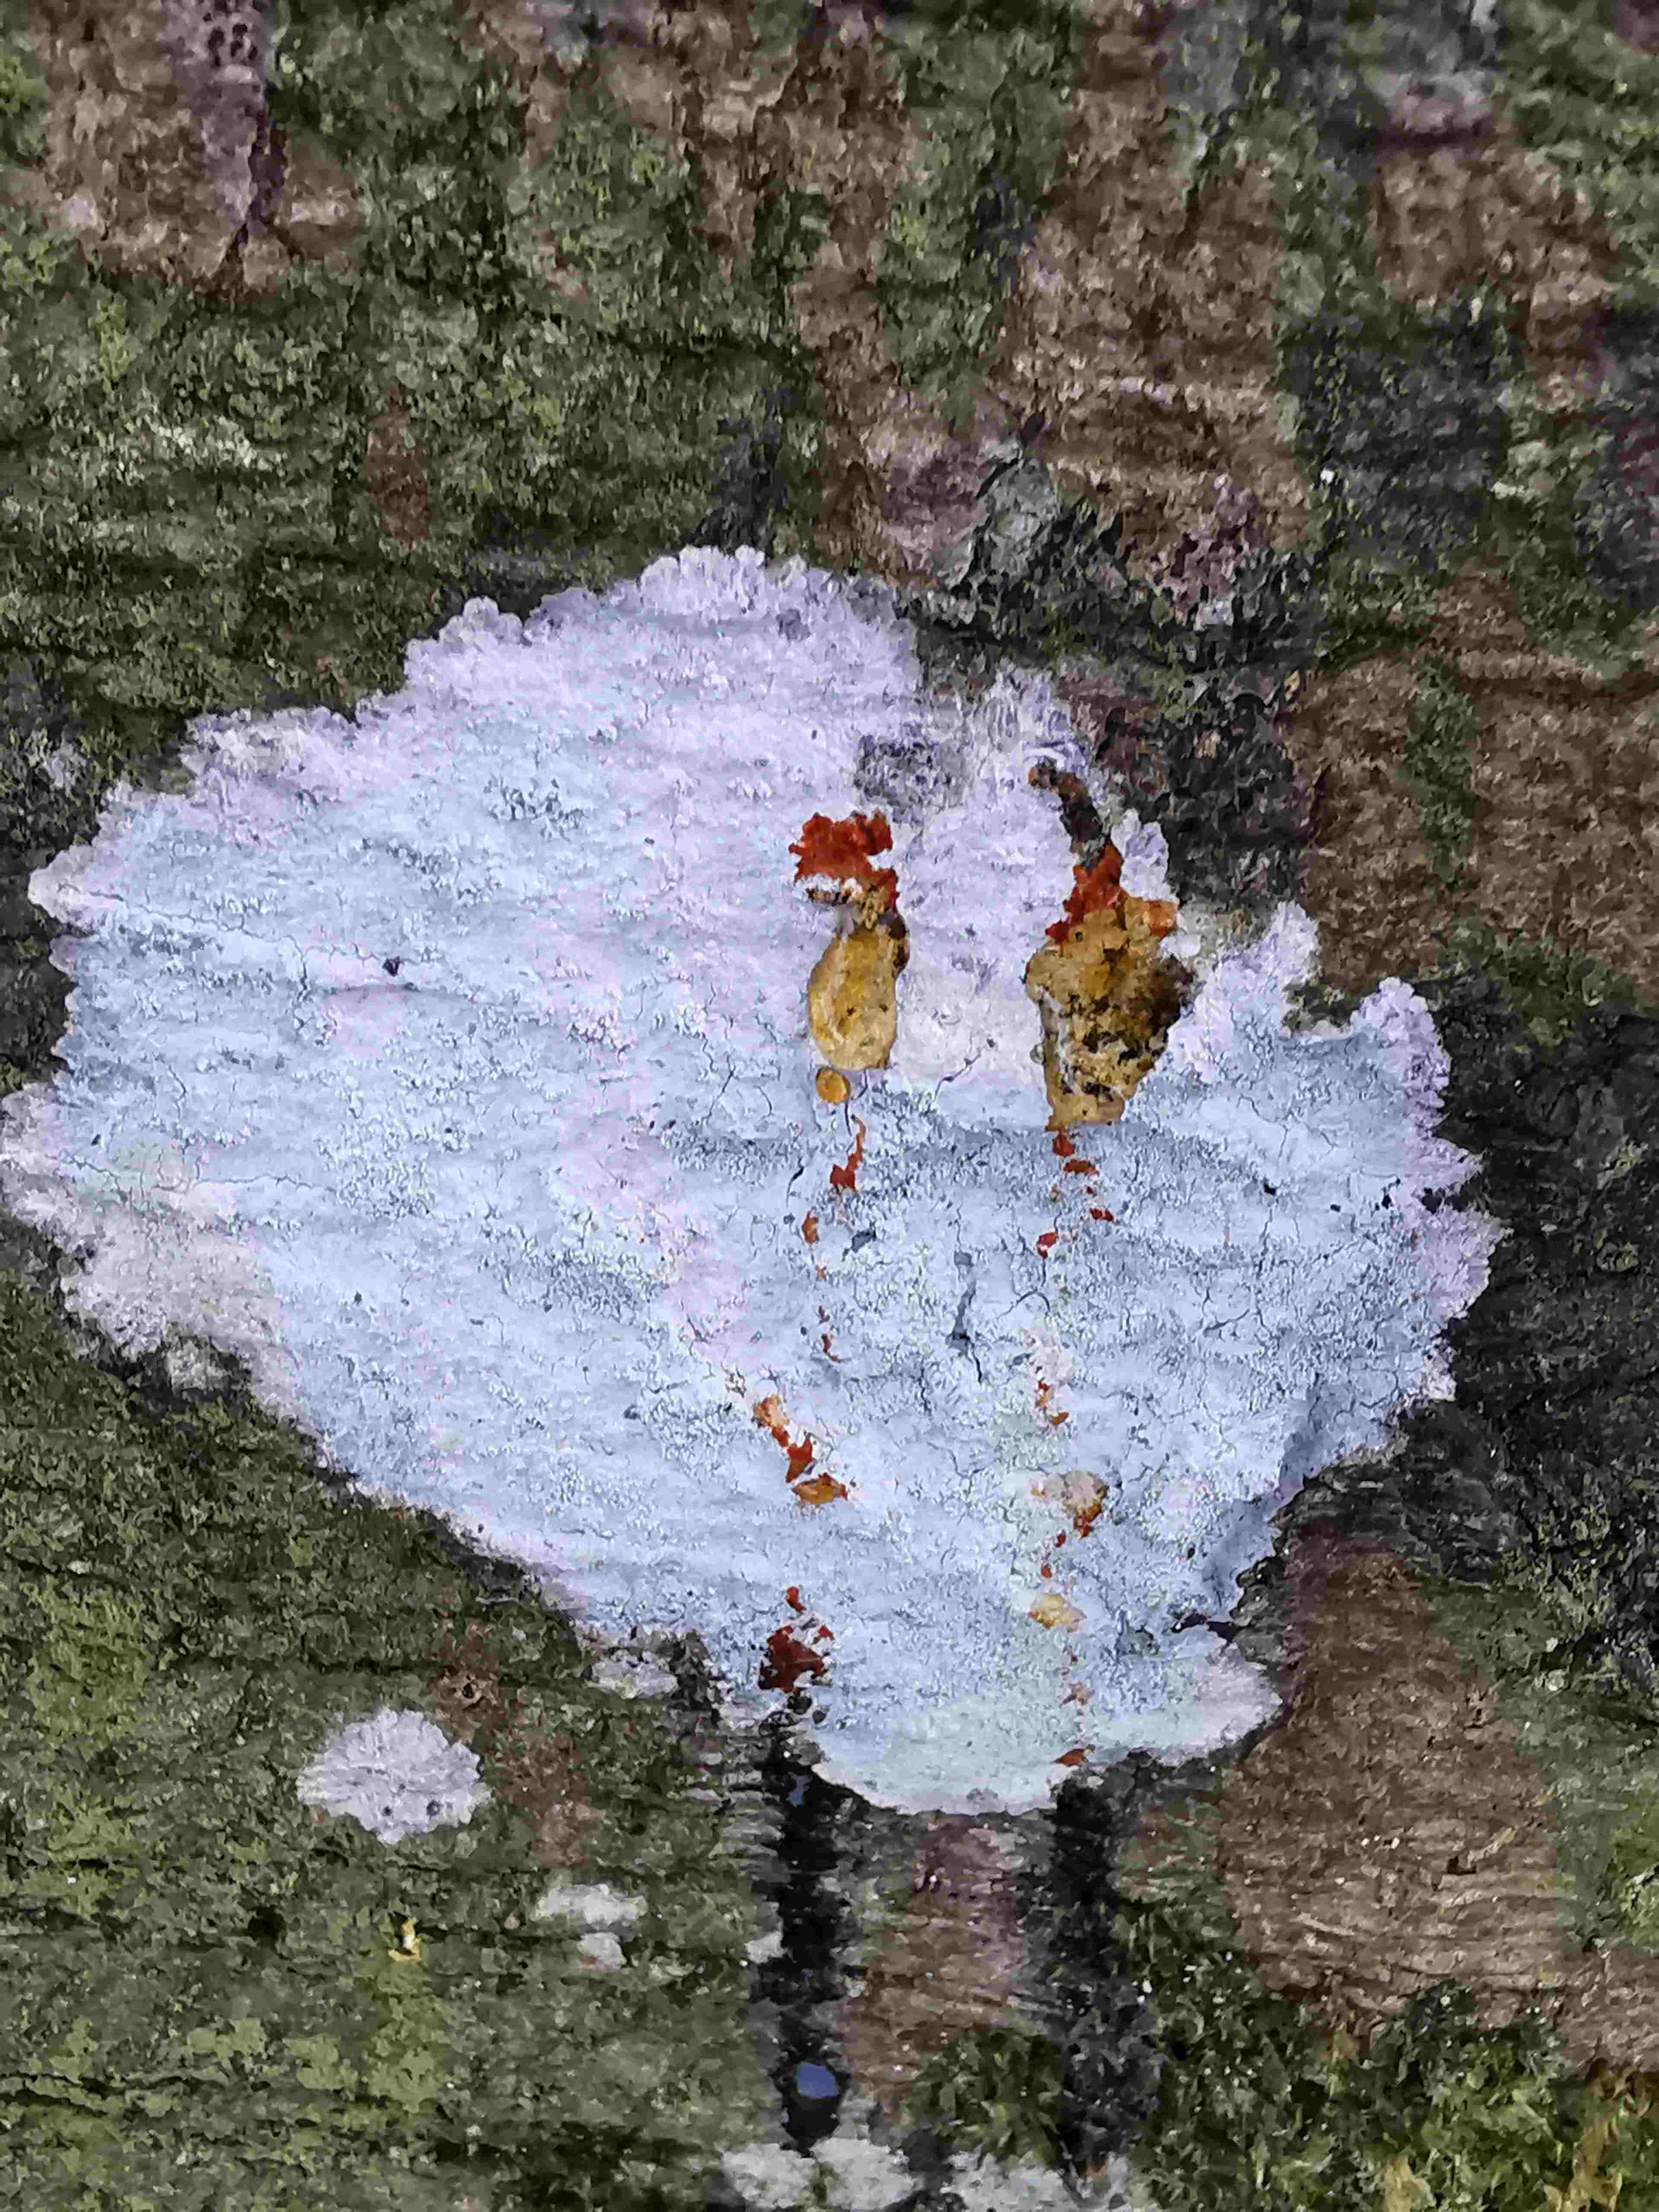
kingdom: Fungi
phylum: Ascomycota
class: Lecanoromycetes
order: Ostropales
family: Phlyctidaceae
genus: Phlyctis
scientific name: Phlyctis argena
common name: almindelig sølvlav
